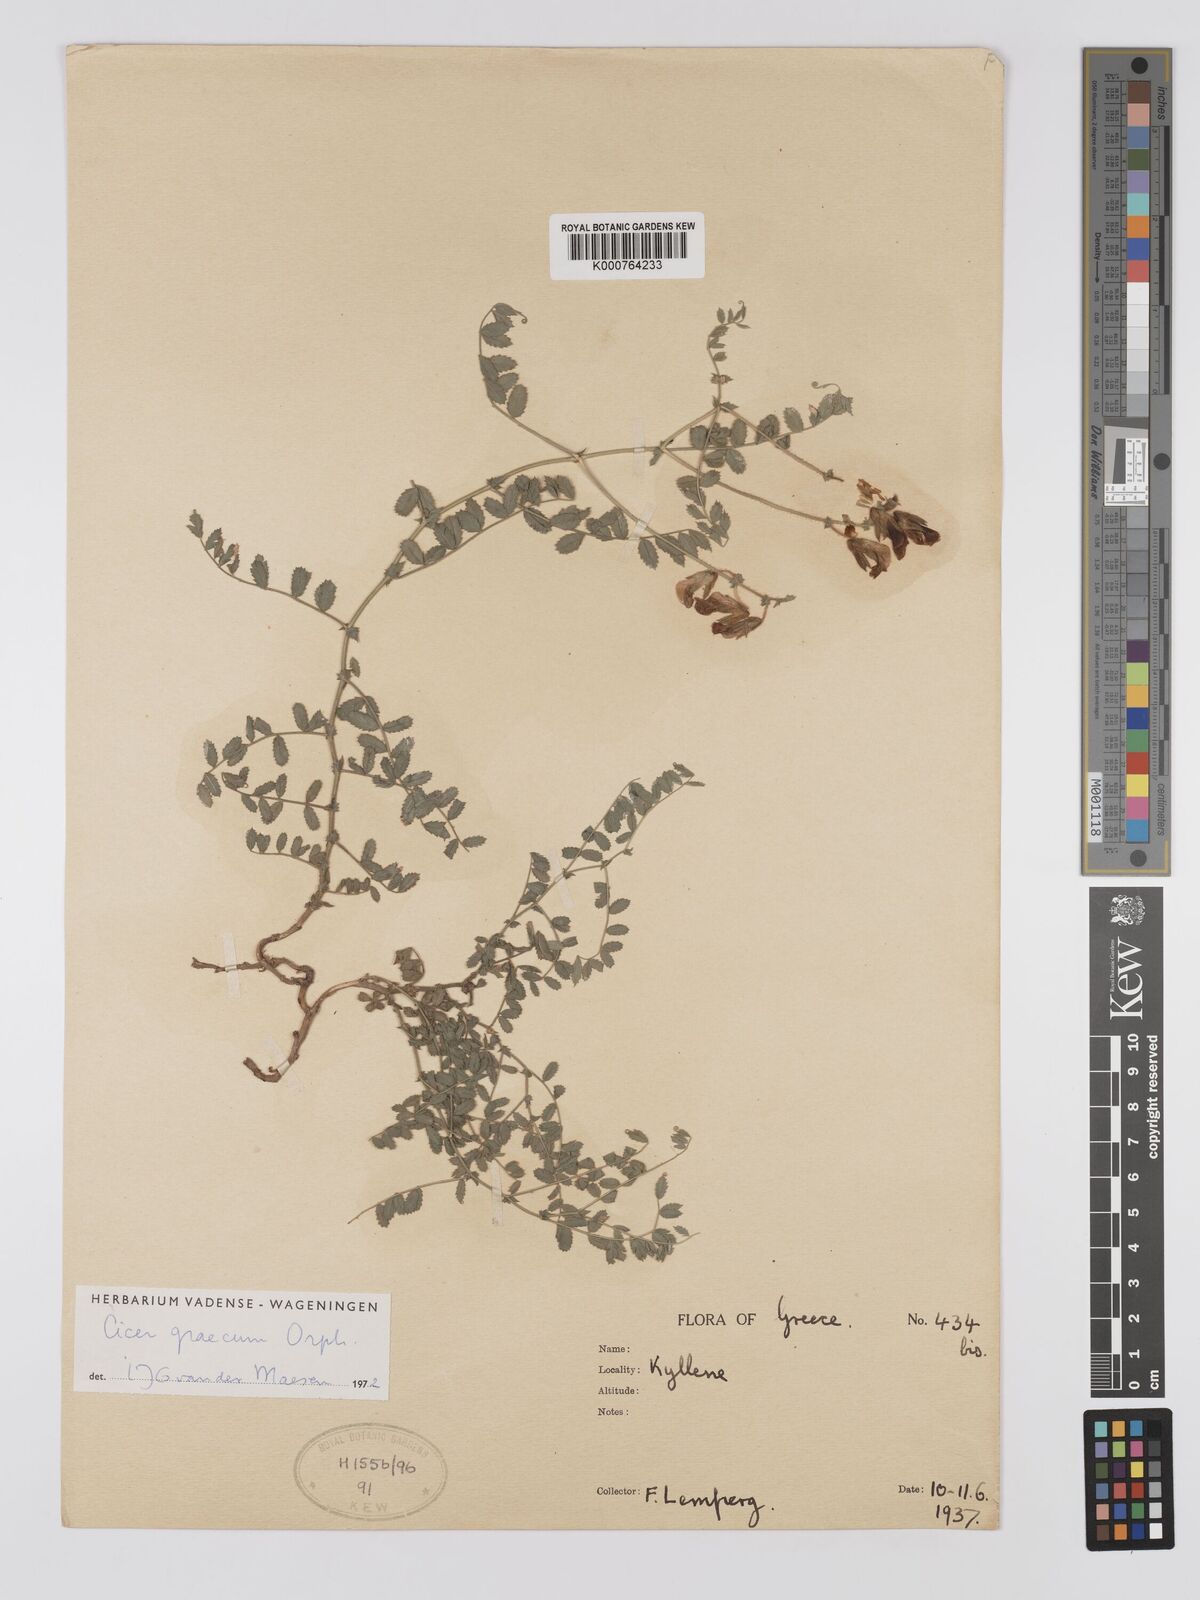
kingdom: Plantae
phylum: Tracheophyta
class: Magnoliopsida
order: Fabales
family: Fabaceae
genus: Cicer
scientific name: Cicer graecum
